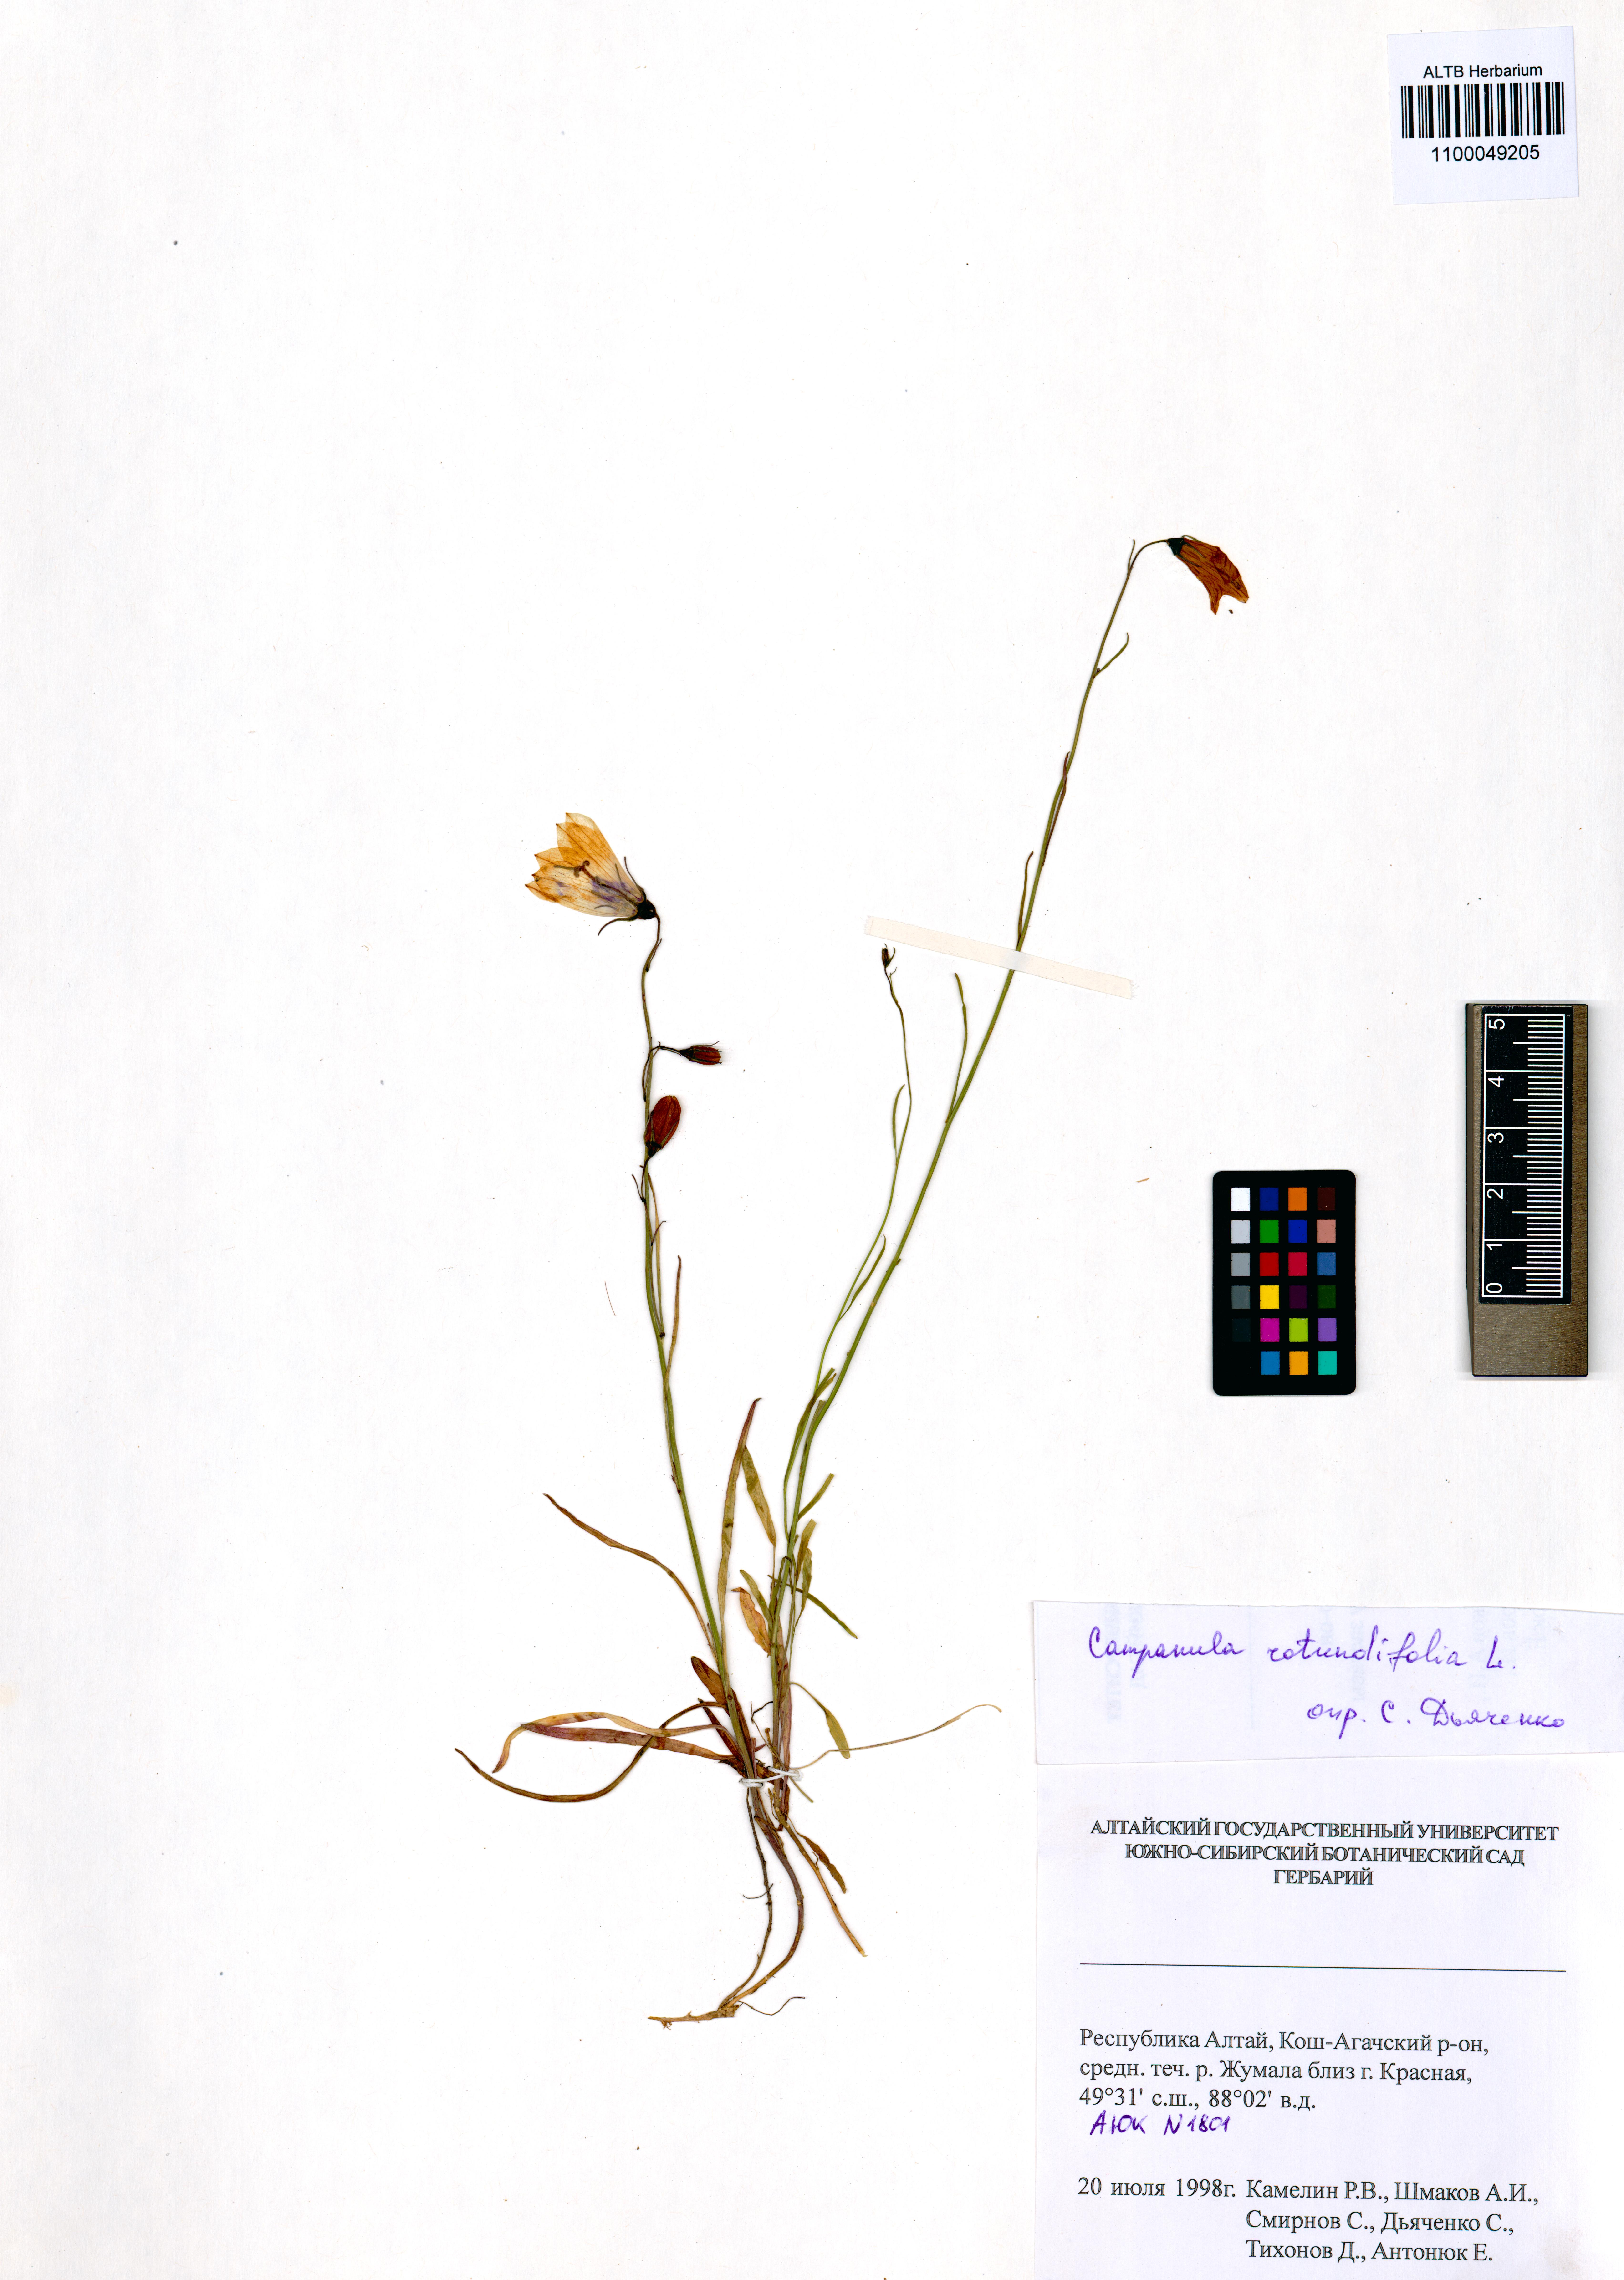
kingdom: Plantae
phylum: Tracheophyta
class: Magnoliopsida
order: Asterales
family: Campanulaceae
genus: Campanula
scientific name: Campanula rotundifolia
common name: Harebell
